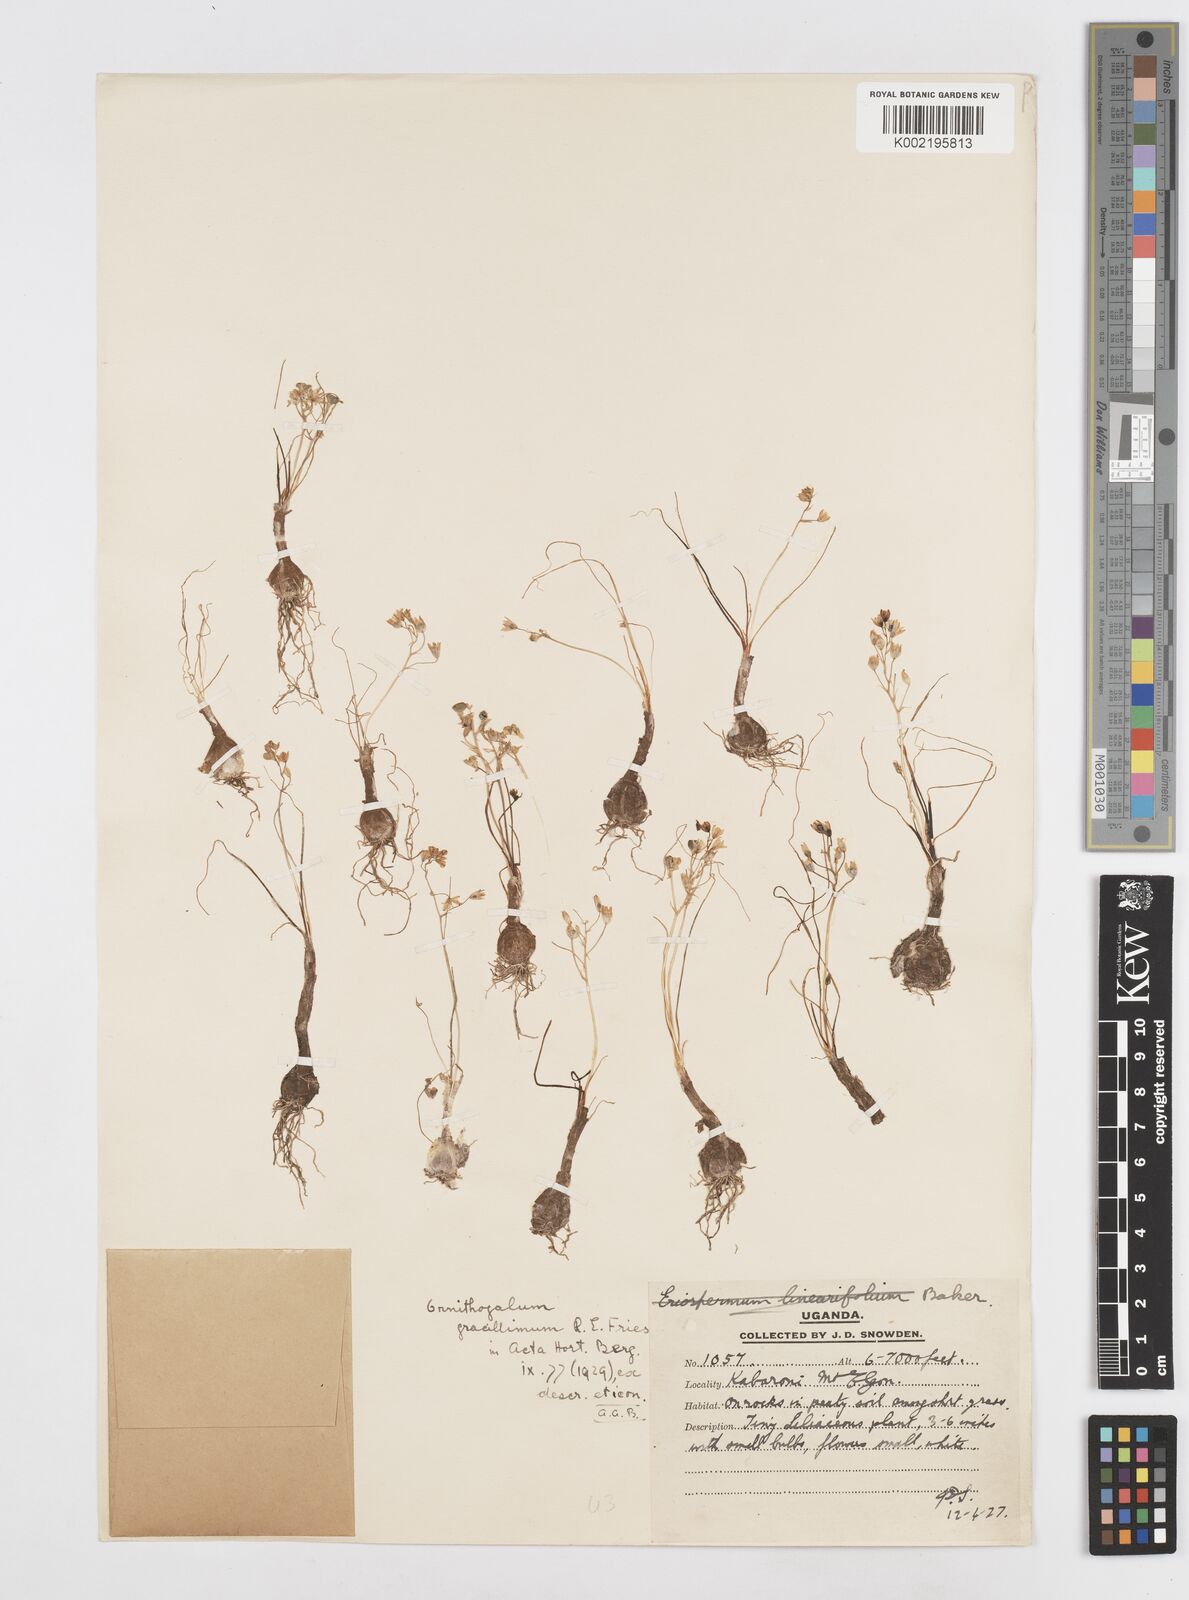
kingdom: Plantae
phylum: Tracheophyta
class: Liliopsida
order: Asparagales
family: Asparagaceae
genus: Ornithogalum
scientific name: Ornithogalum
